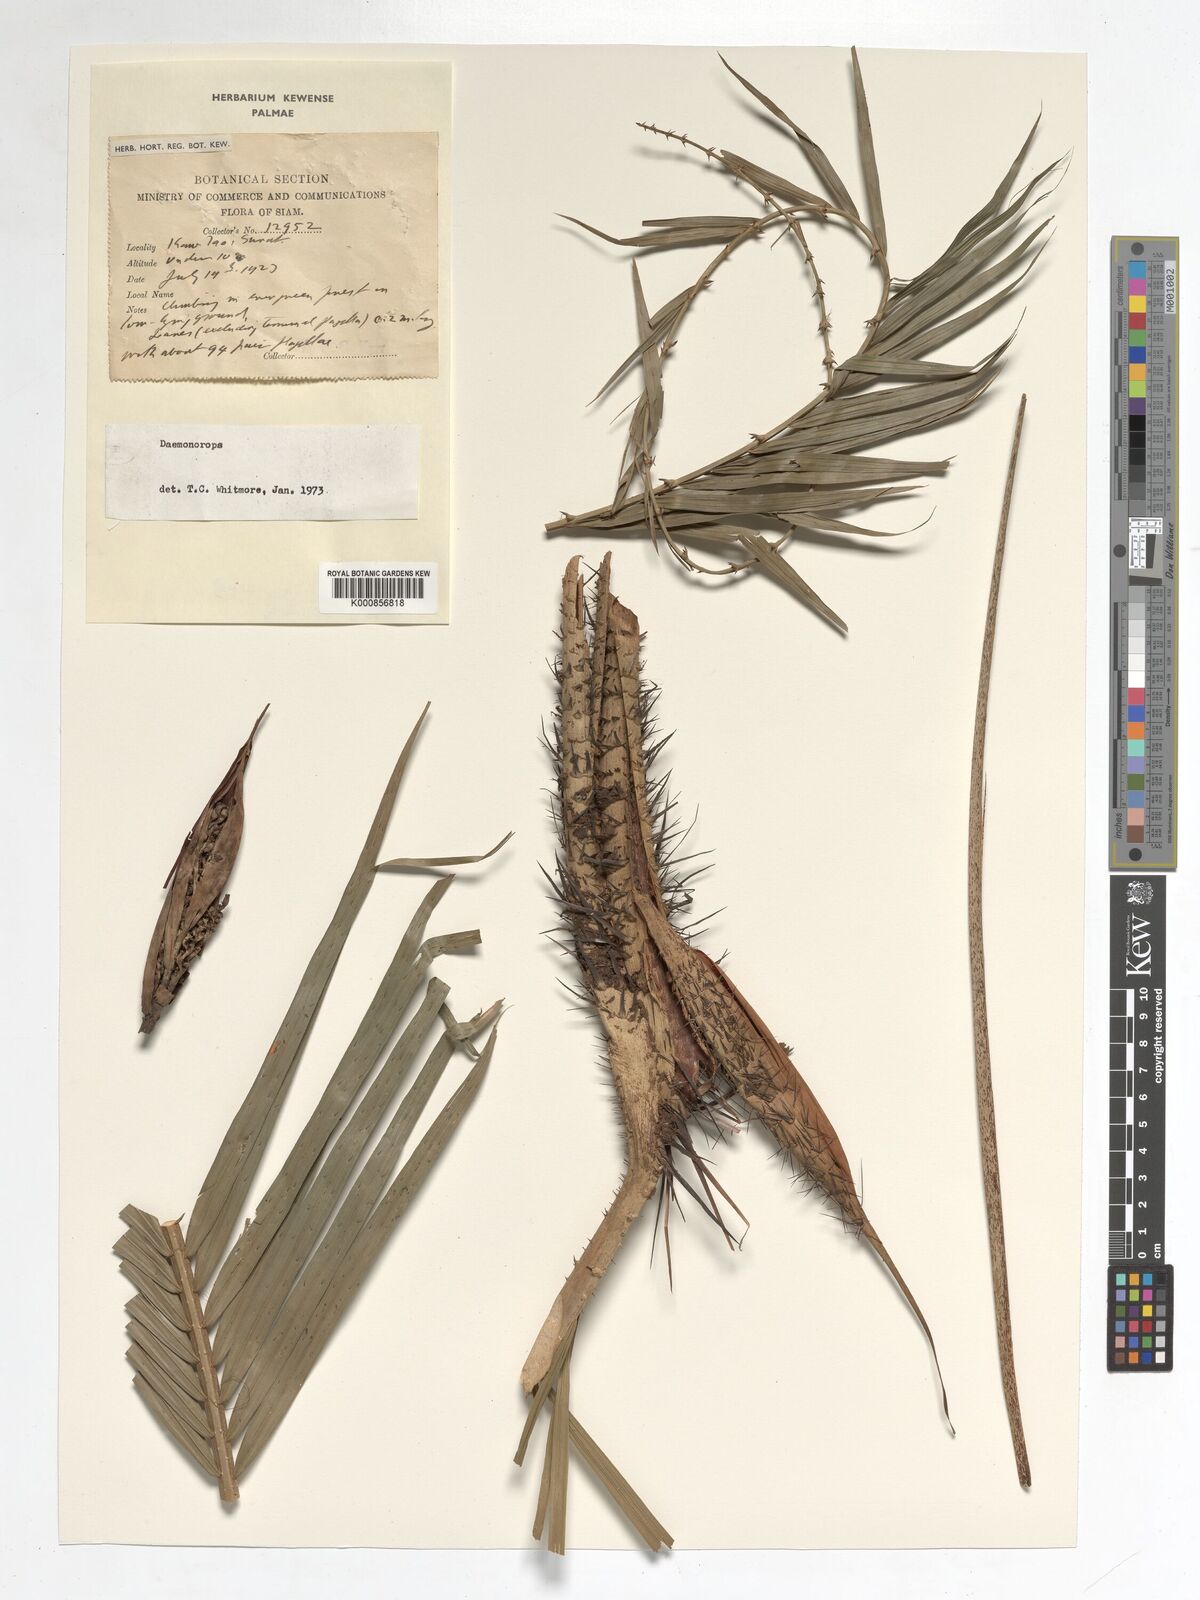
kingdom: Plantae
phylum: Tracheophyta
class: Liliopsida
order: Arecales
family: Arecaceae
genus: Daemonorops
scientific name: Daemonorops
